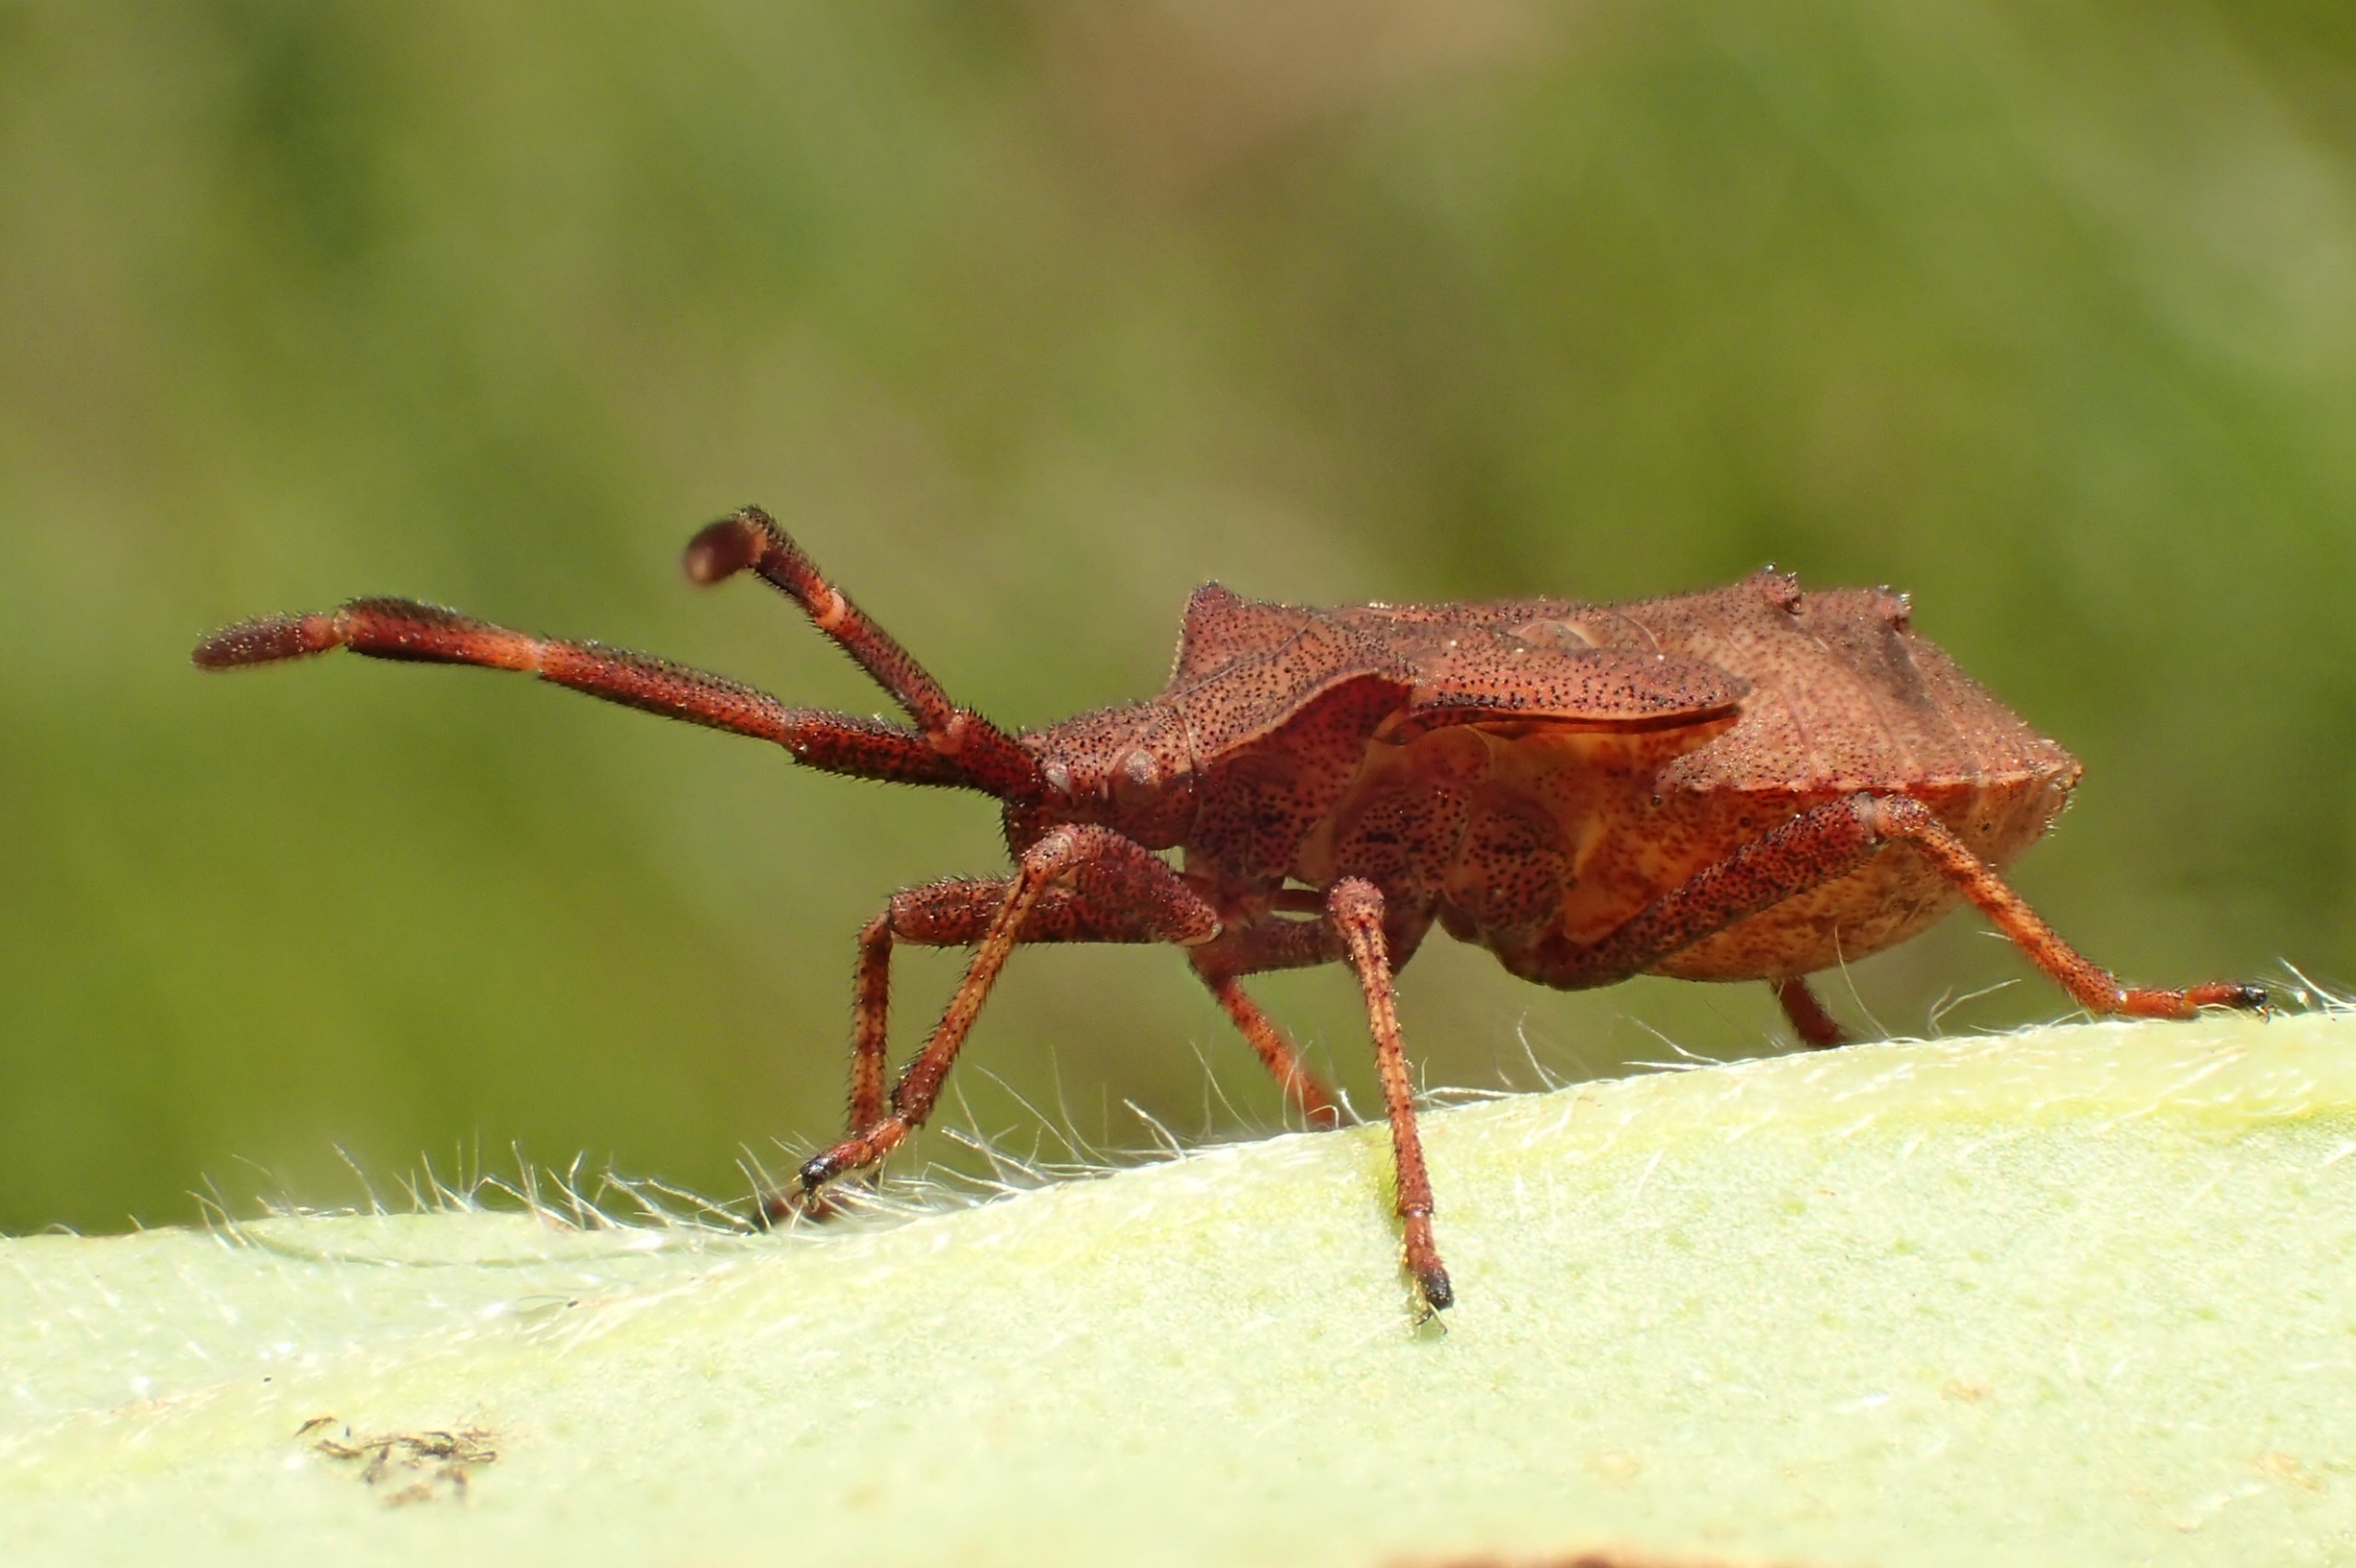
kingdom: Animalia
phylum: Arthropoda
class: Insecta
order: Hemiptera
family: Coreidae
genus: Coreus
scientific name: Coreus marginatus
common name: Skræppetæge
